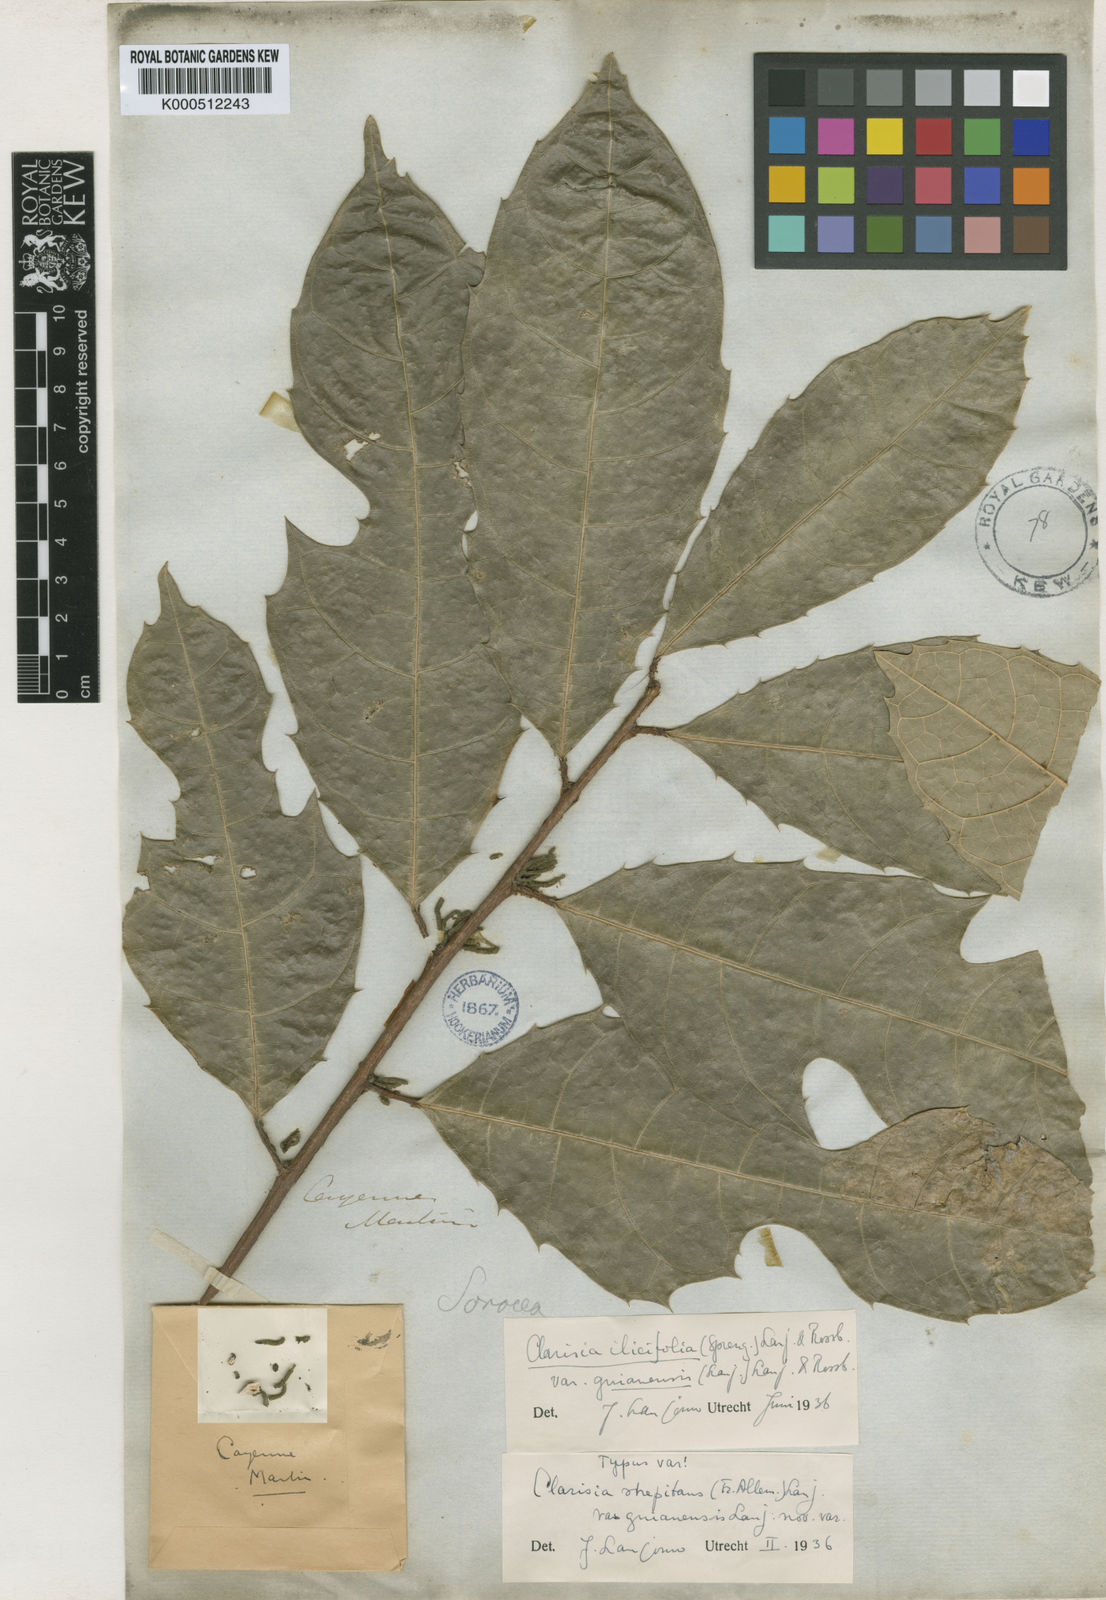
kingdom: Plantae
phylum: Tracheophyta
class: Magnoliopsida
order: Rosales
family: Moraceae
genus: Clarisia
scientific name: Clarisia ilicifolia
